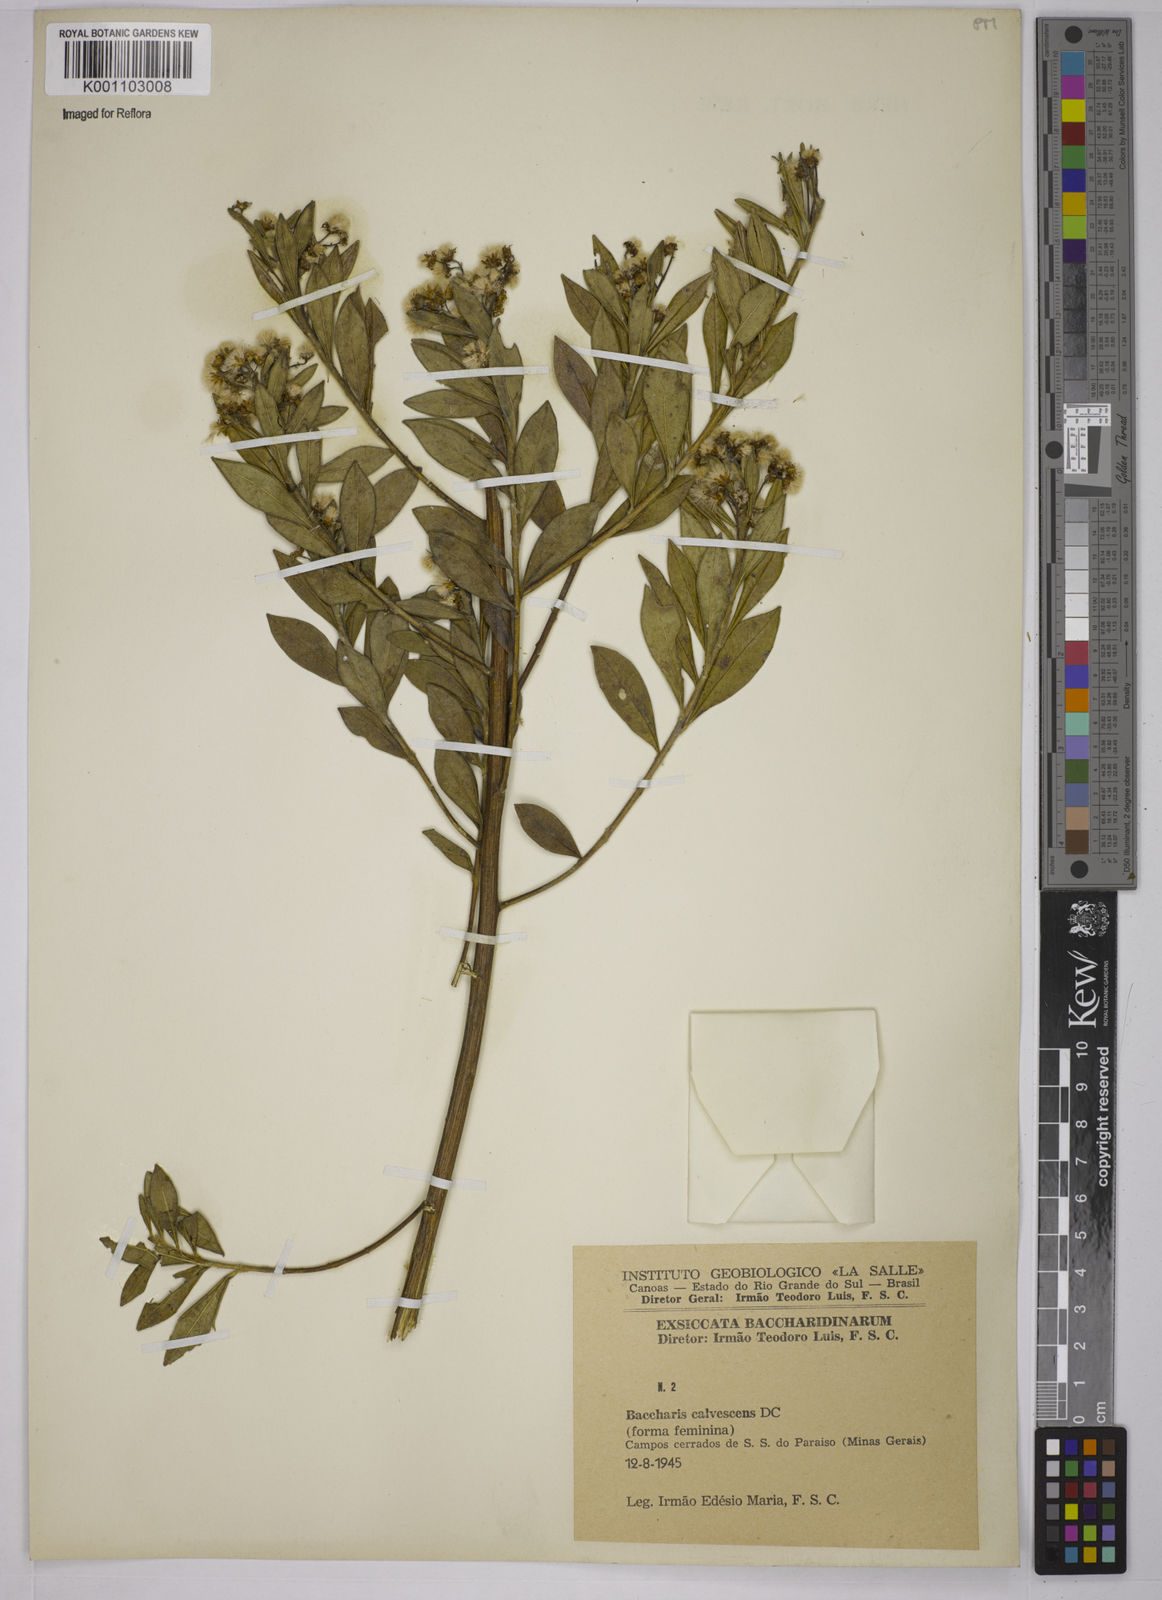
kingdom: Plantae
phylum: Tracheophyta
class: Magnoliopsida
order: Asterales
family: Asteraceae
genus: Baccharis
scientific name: Baccharis calvescens
